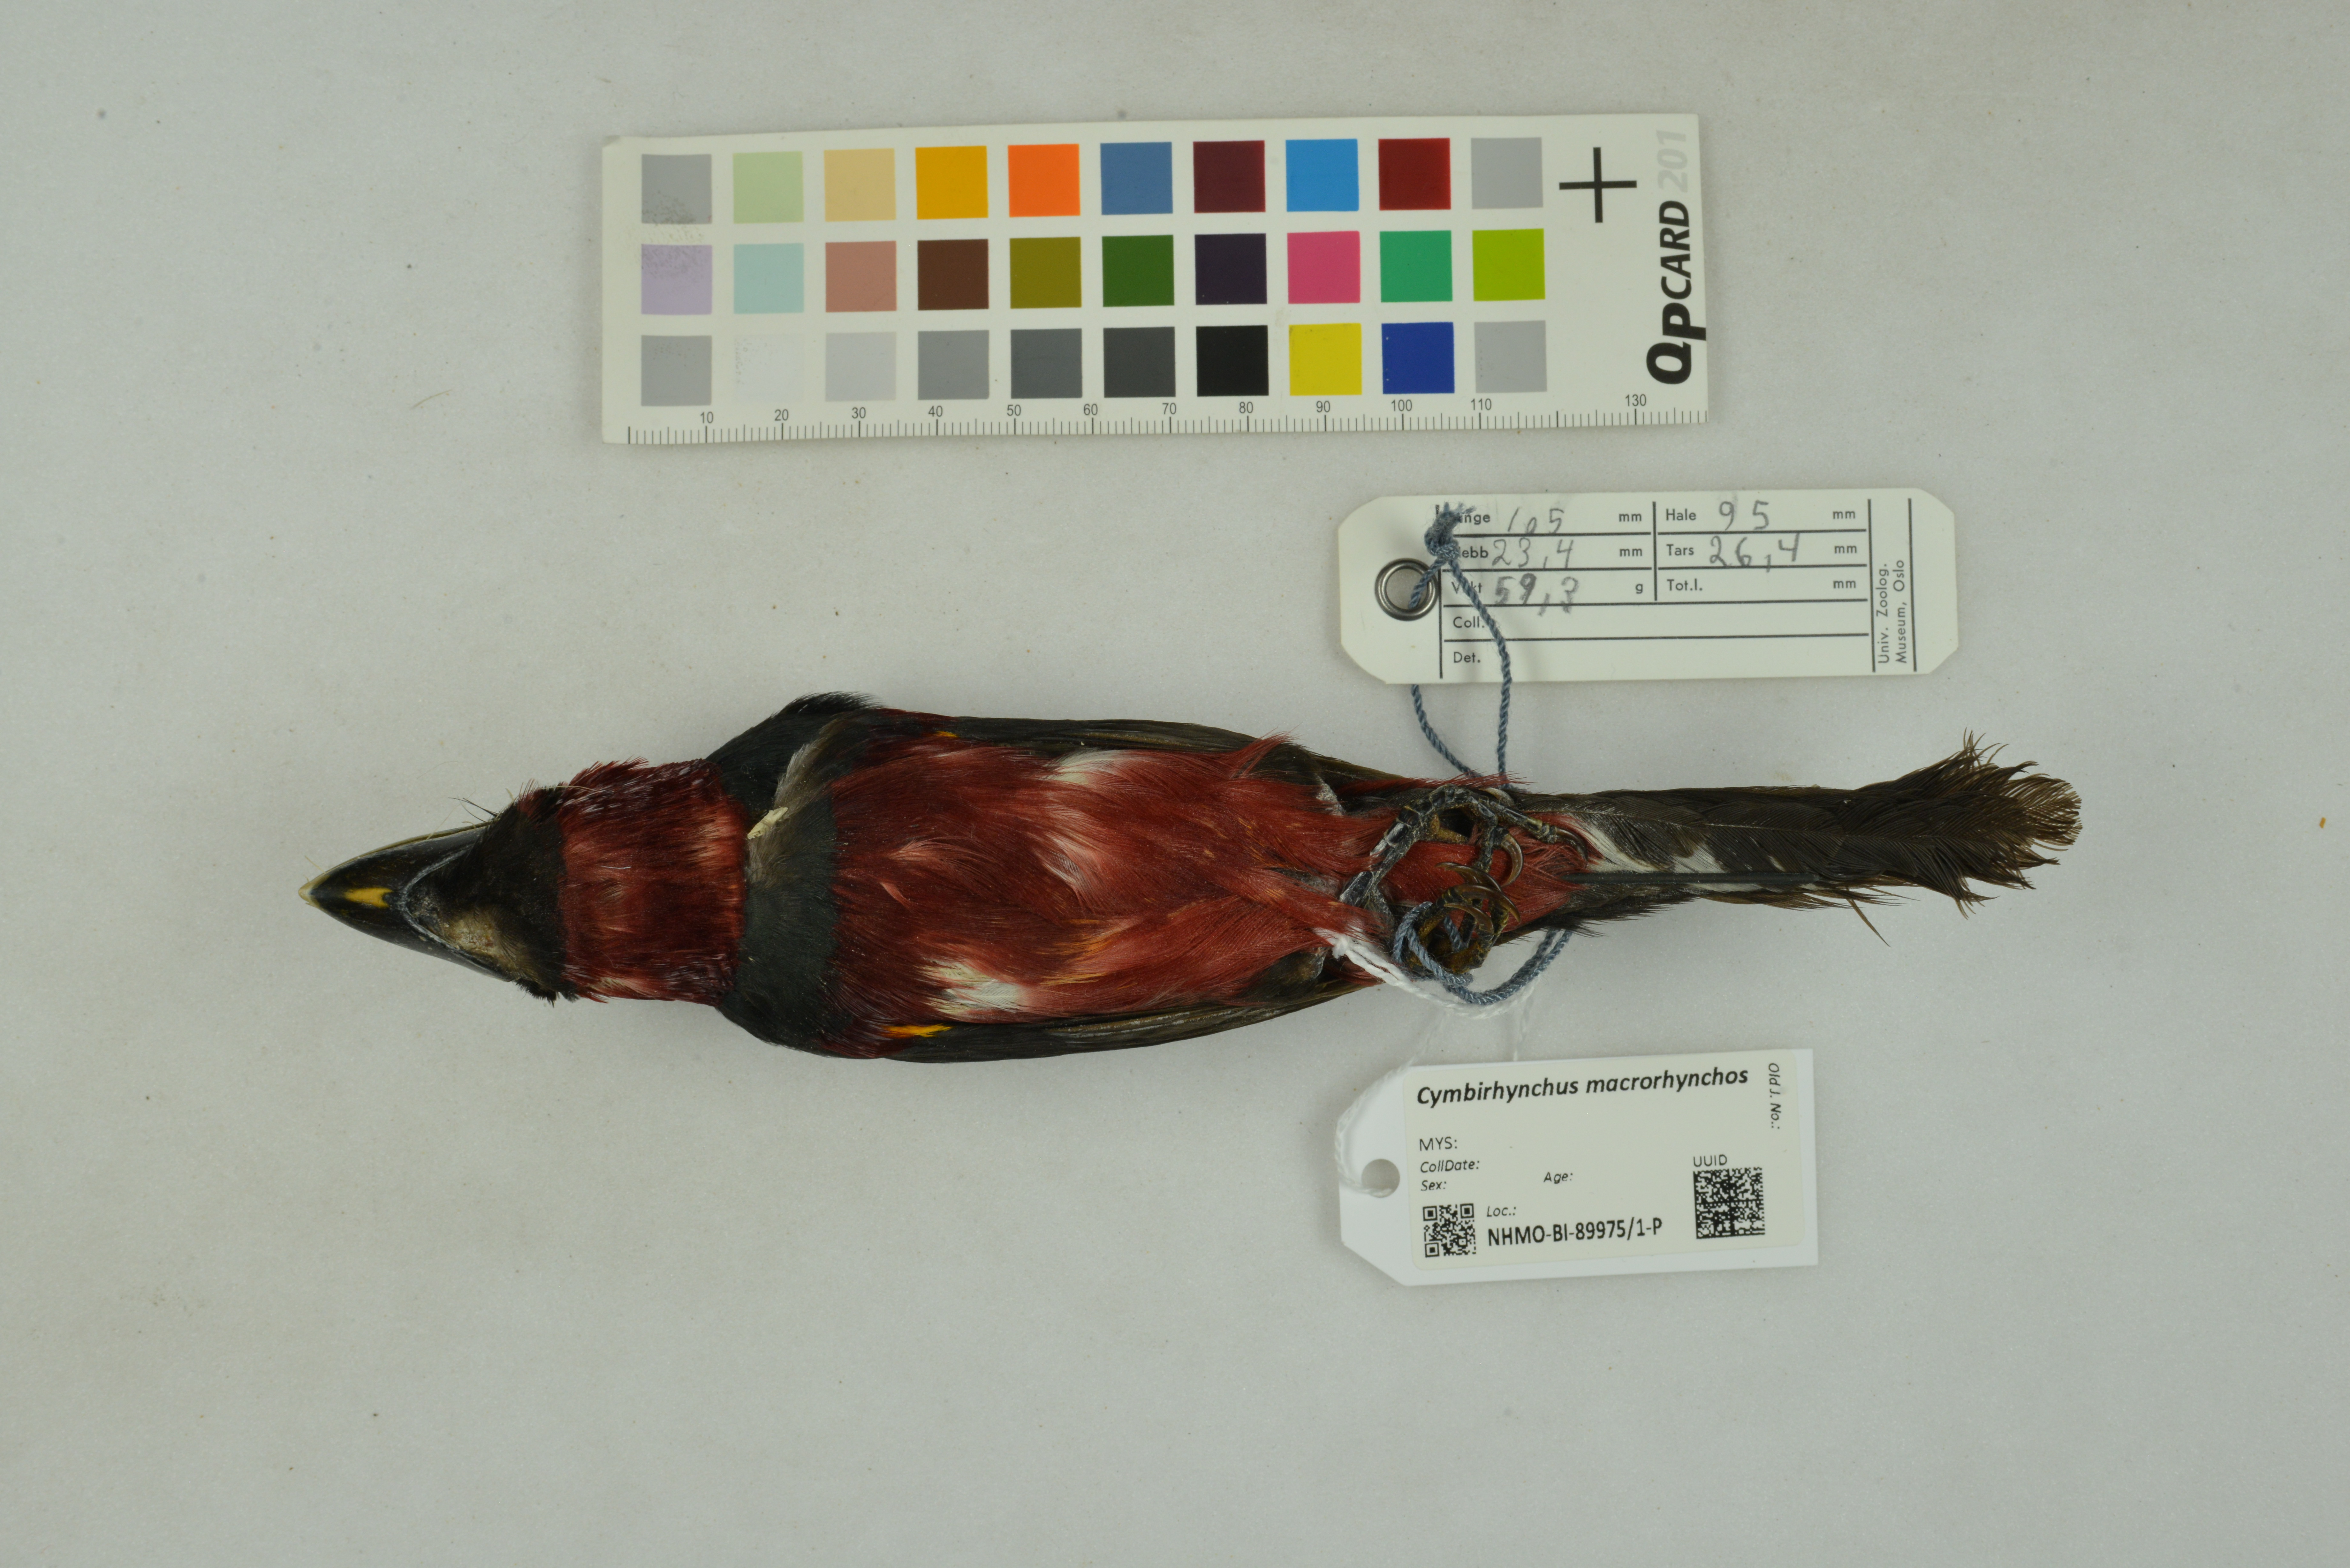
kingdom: Animalia
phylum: Chordata
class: Aves
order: Passeriformes
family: Eurylaimidae
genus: Cymbirhynchus
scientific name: Cymbirhynchus macrorhynchos
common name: Black-and-red broadbill
